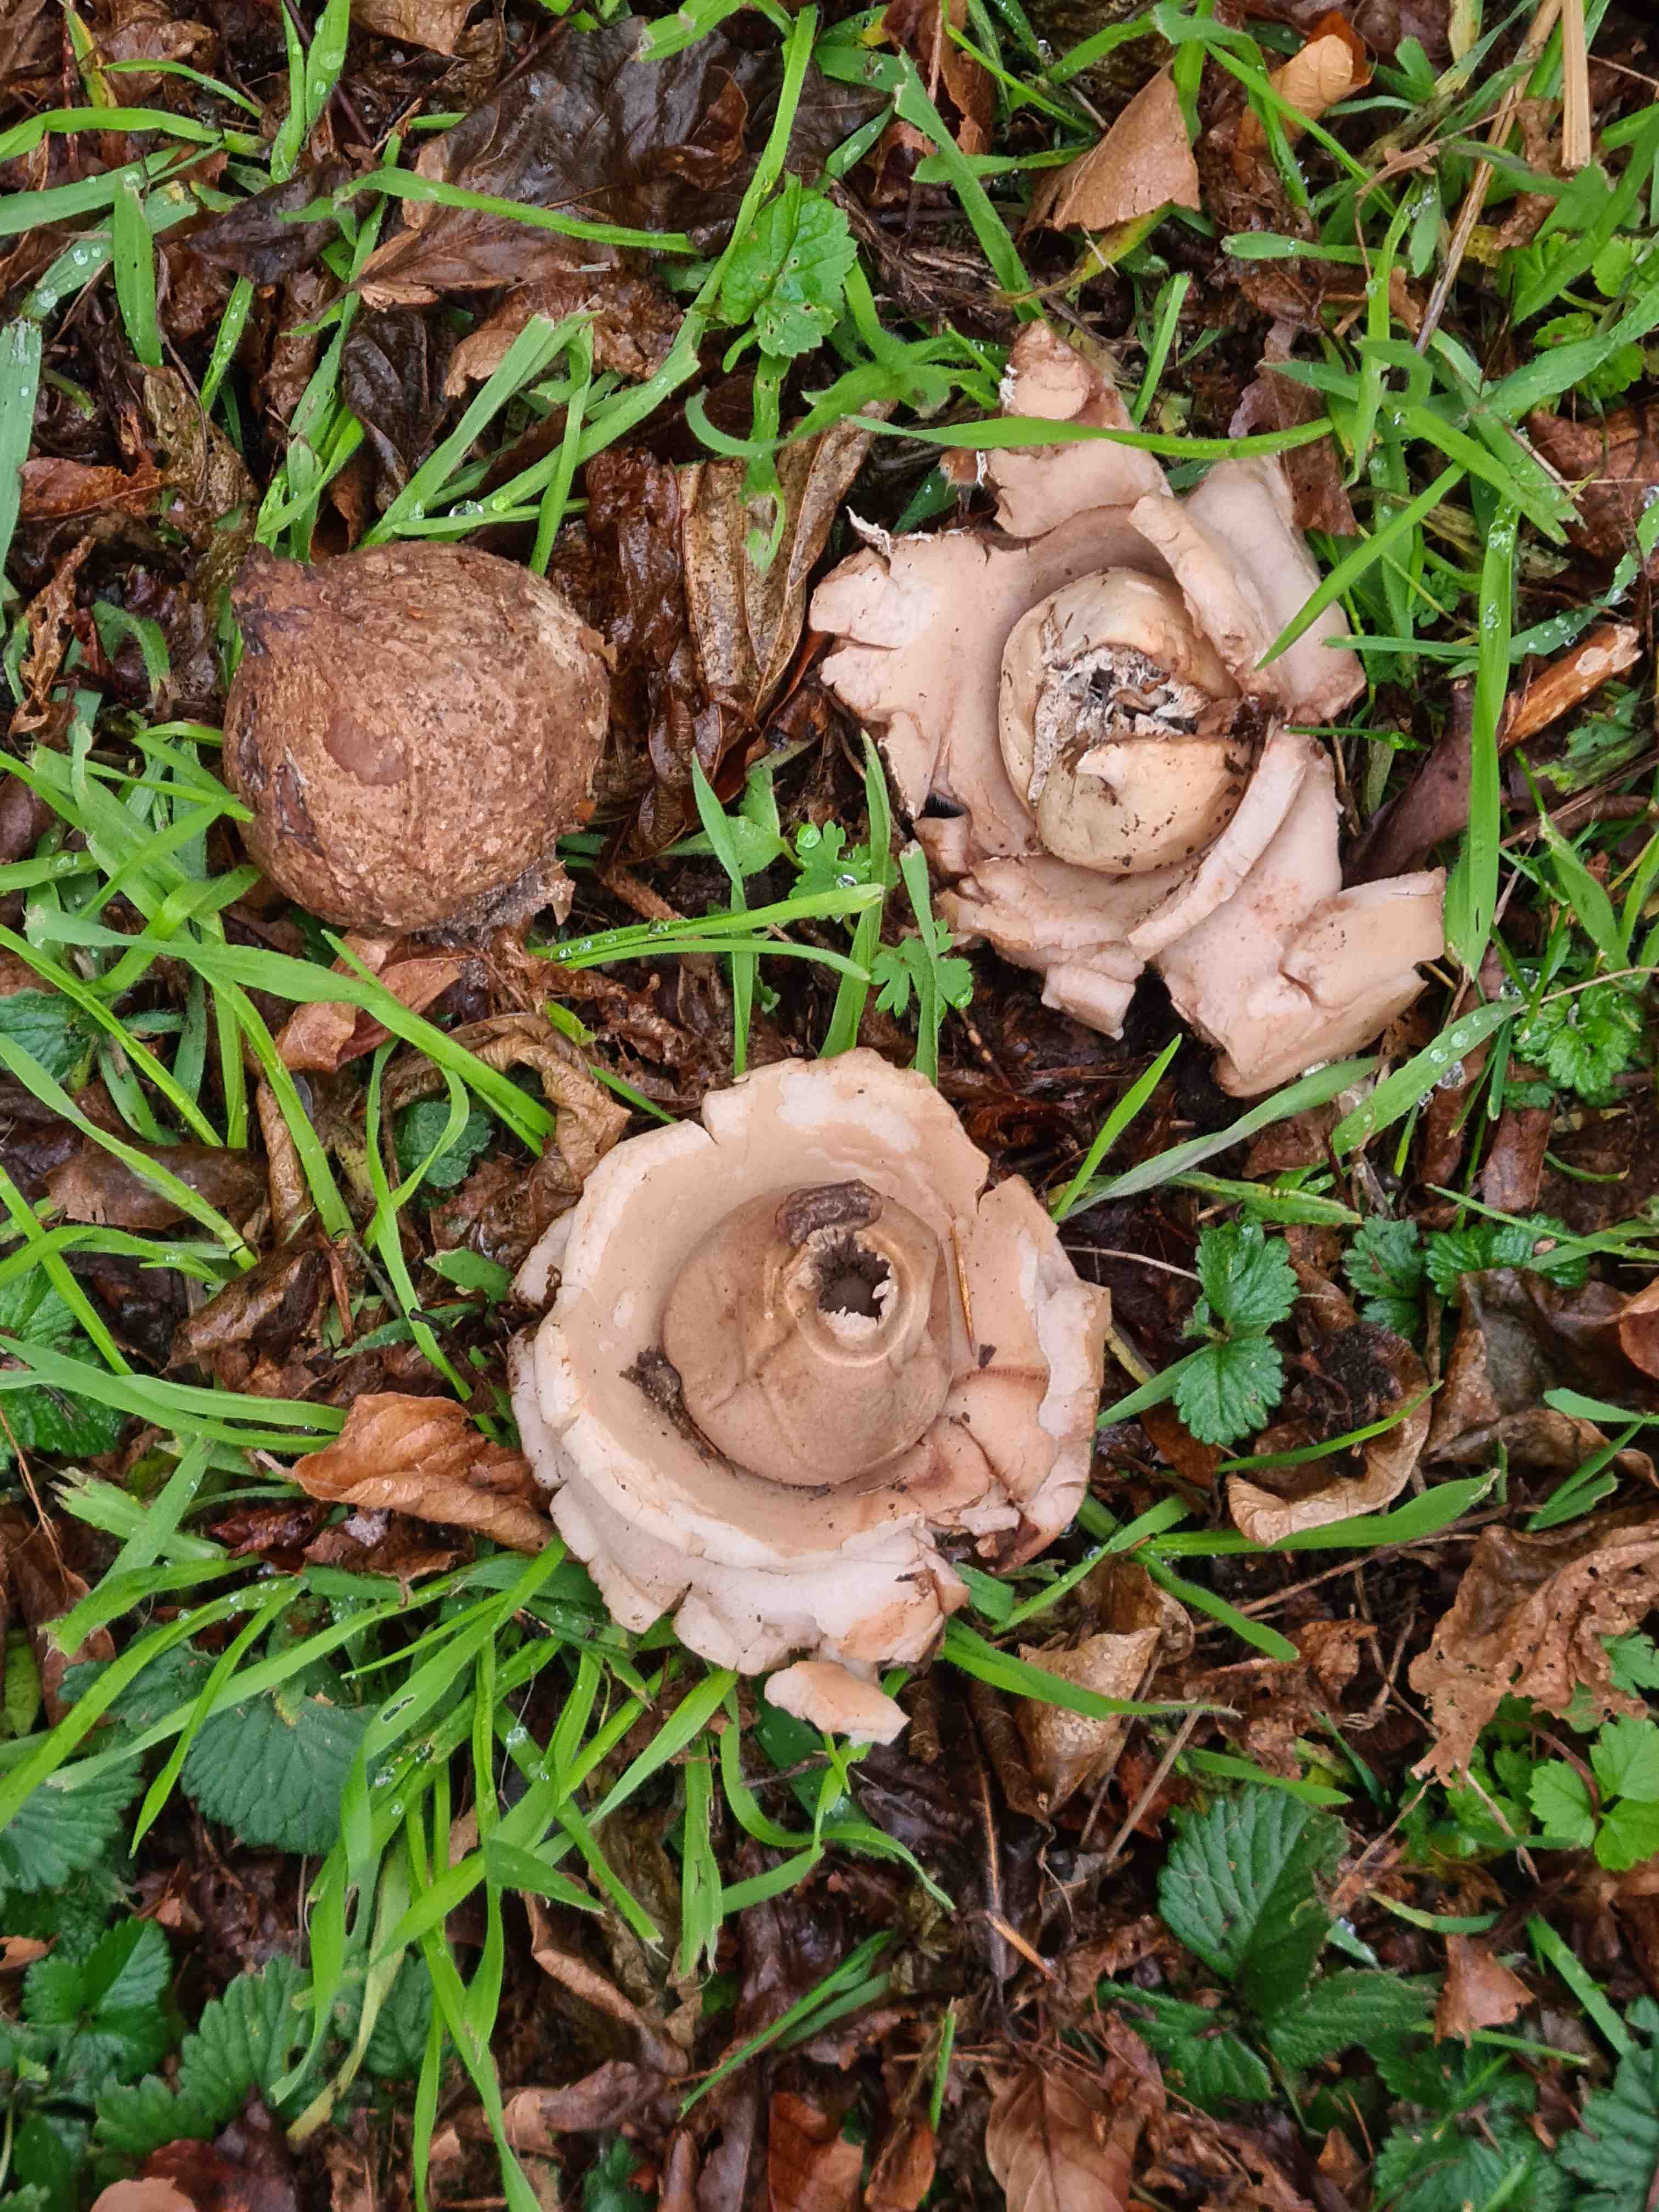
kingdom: Fungi
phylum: Basidiomycota
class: Agaricomycetes
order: Geastrales
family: Geastraceae
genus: Geastrum
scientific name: Geastrum michelianum
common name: kødet stjernebold
